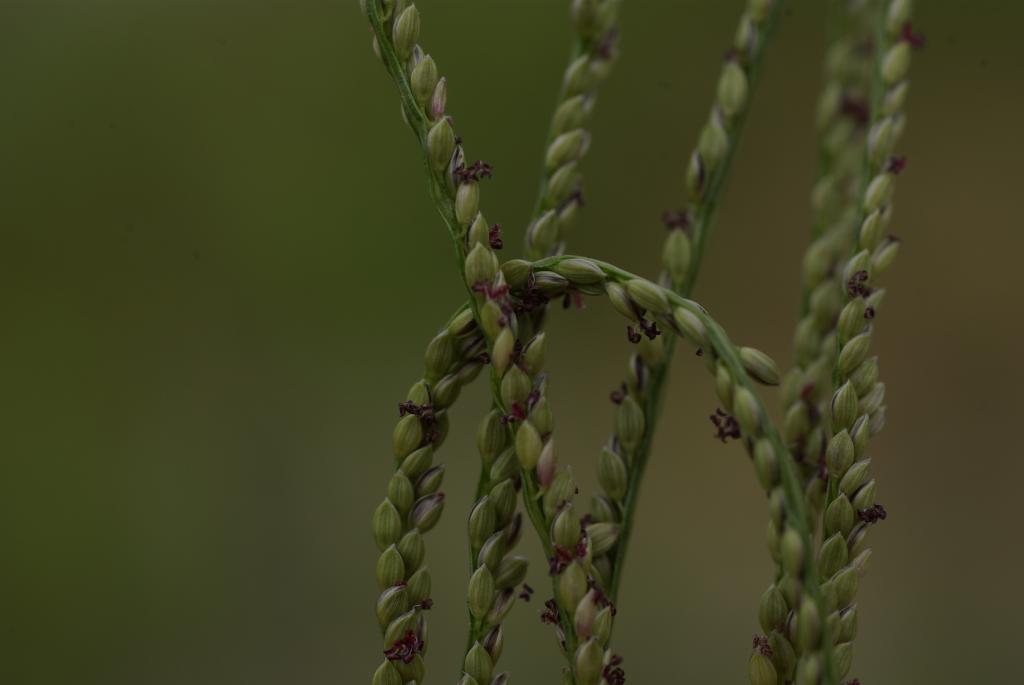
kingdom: Plantae
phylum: Tracheophyta
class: Liliopsida
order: Poales
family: Poaceae
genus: Digitaria
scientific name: Digitaria violascens
